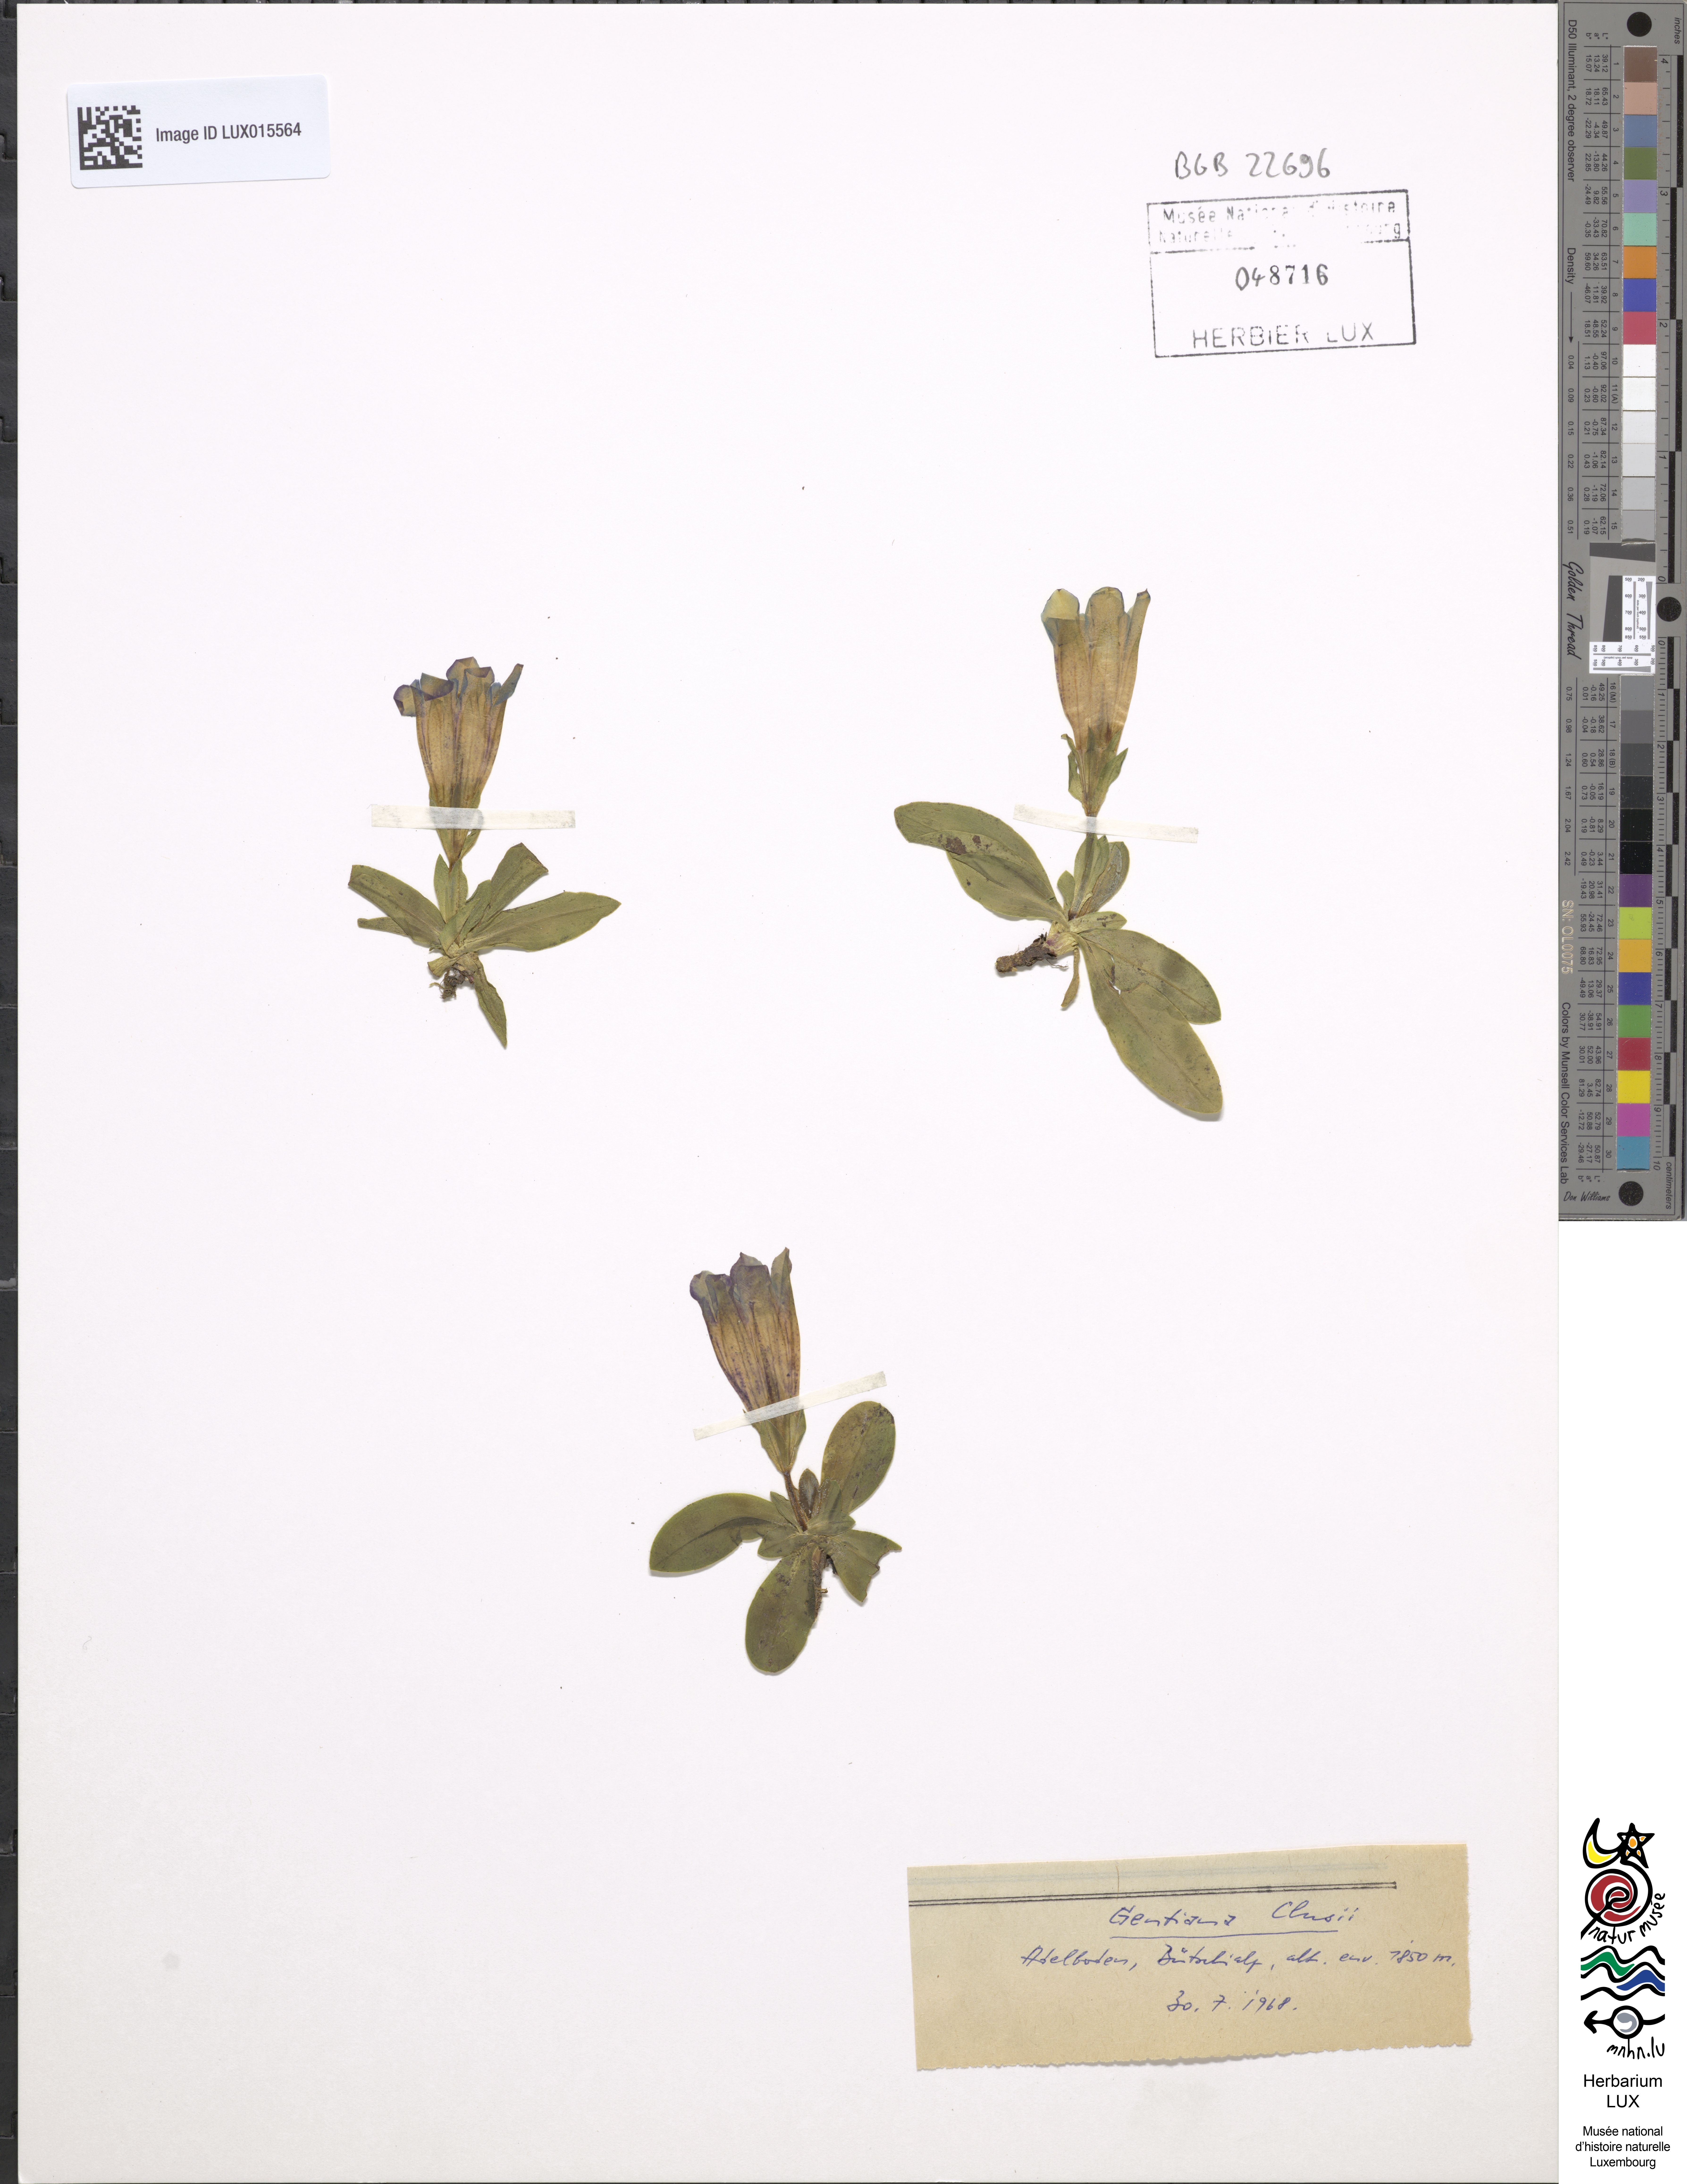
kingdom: Plantae
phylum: Tracheophyta
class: Magnoliopsida
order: Gentianales
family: Gentianaceae
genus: Gentiana
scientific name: Gentiana clusii
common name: Trumpet gentian
